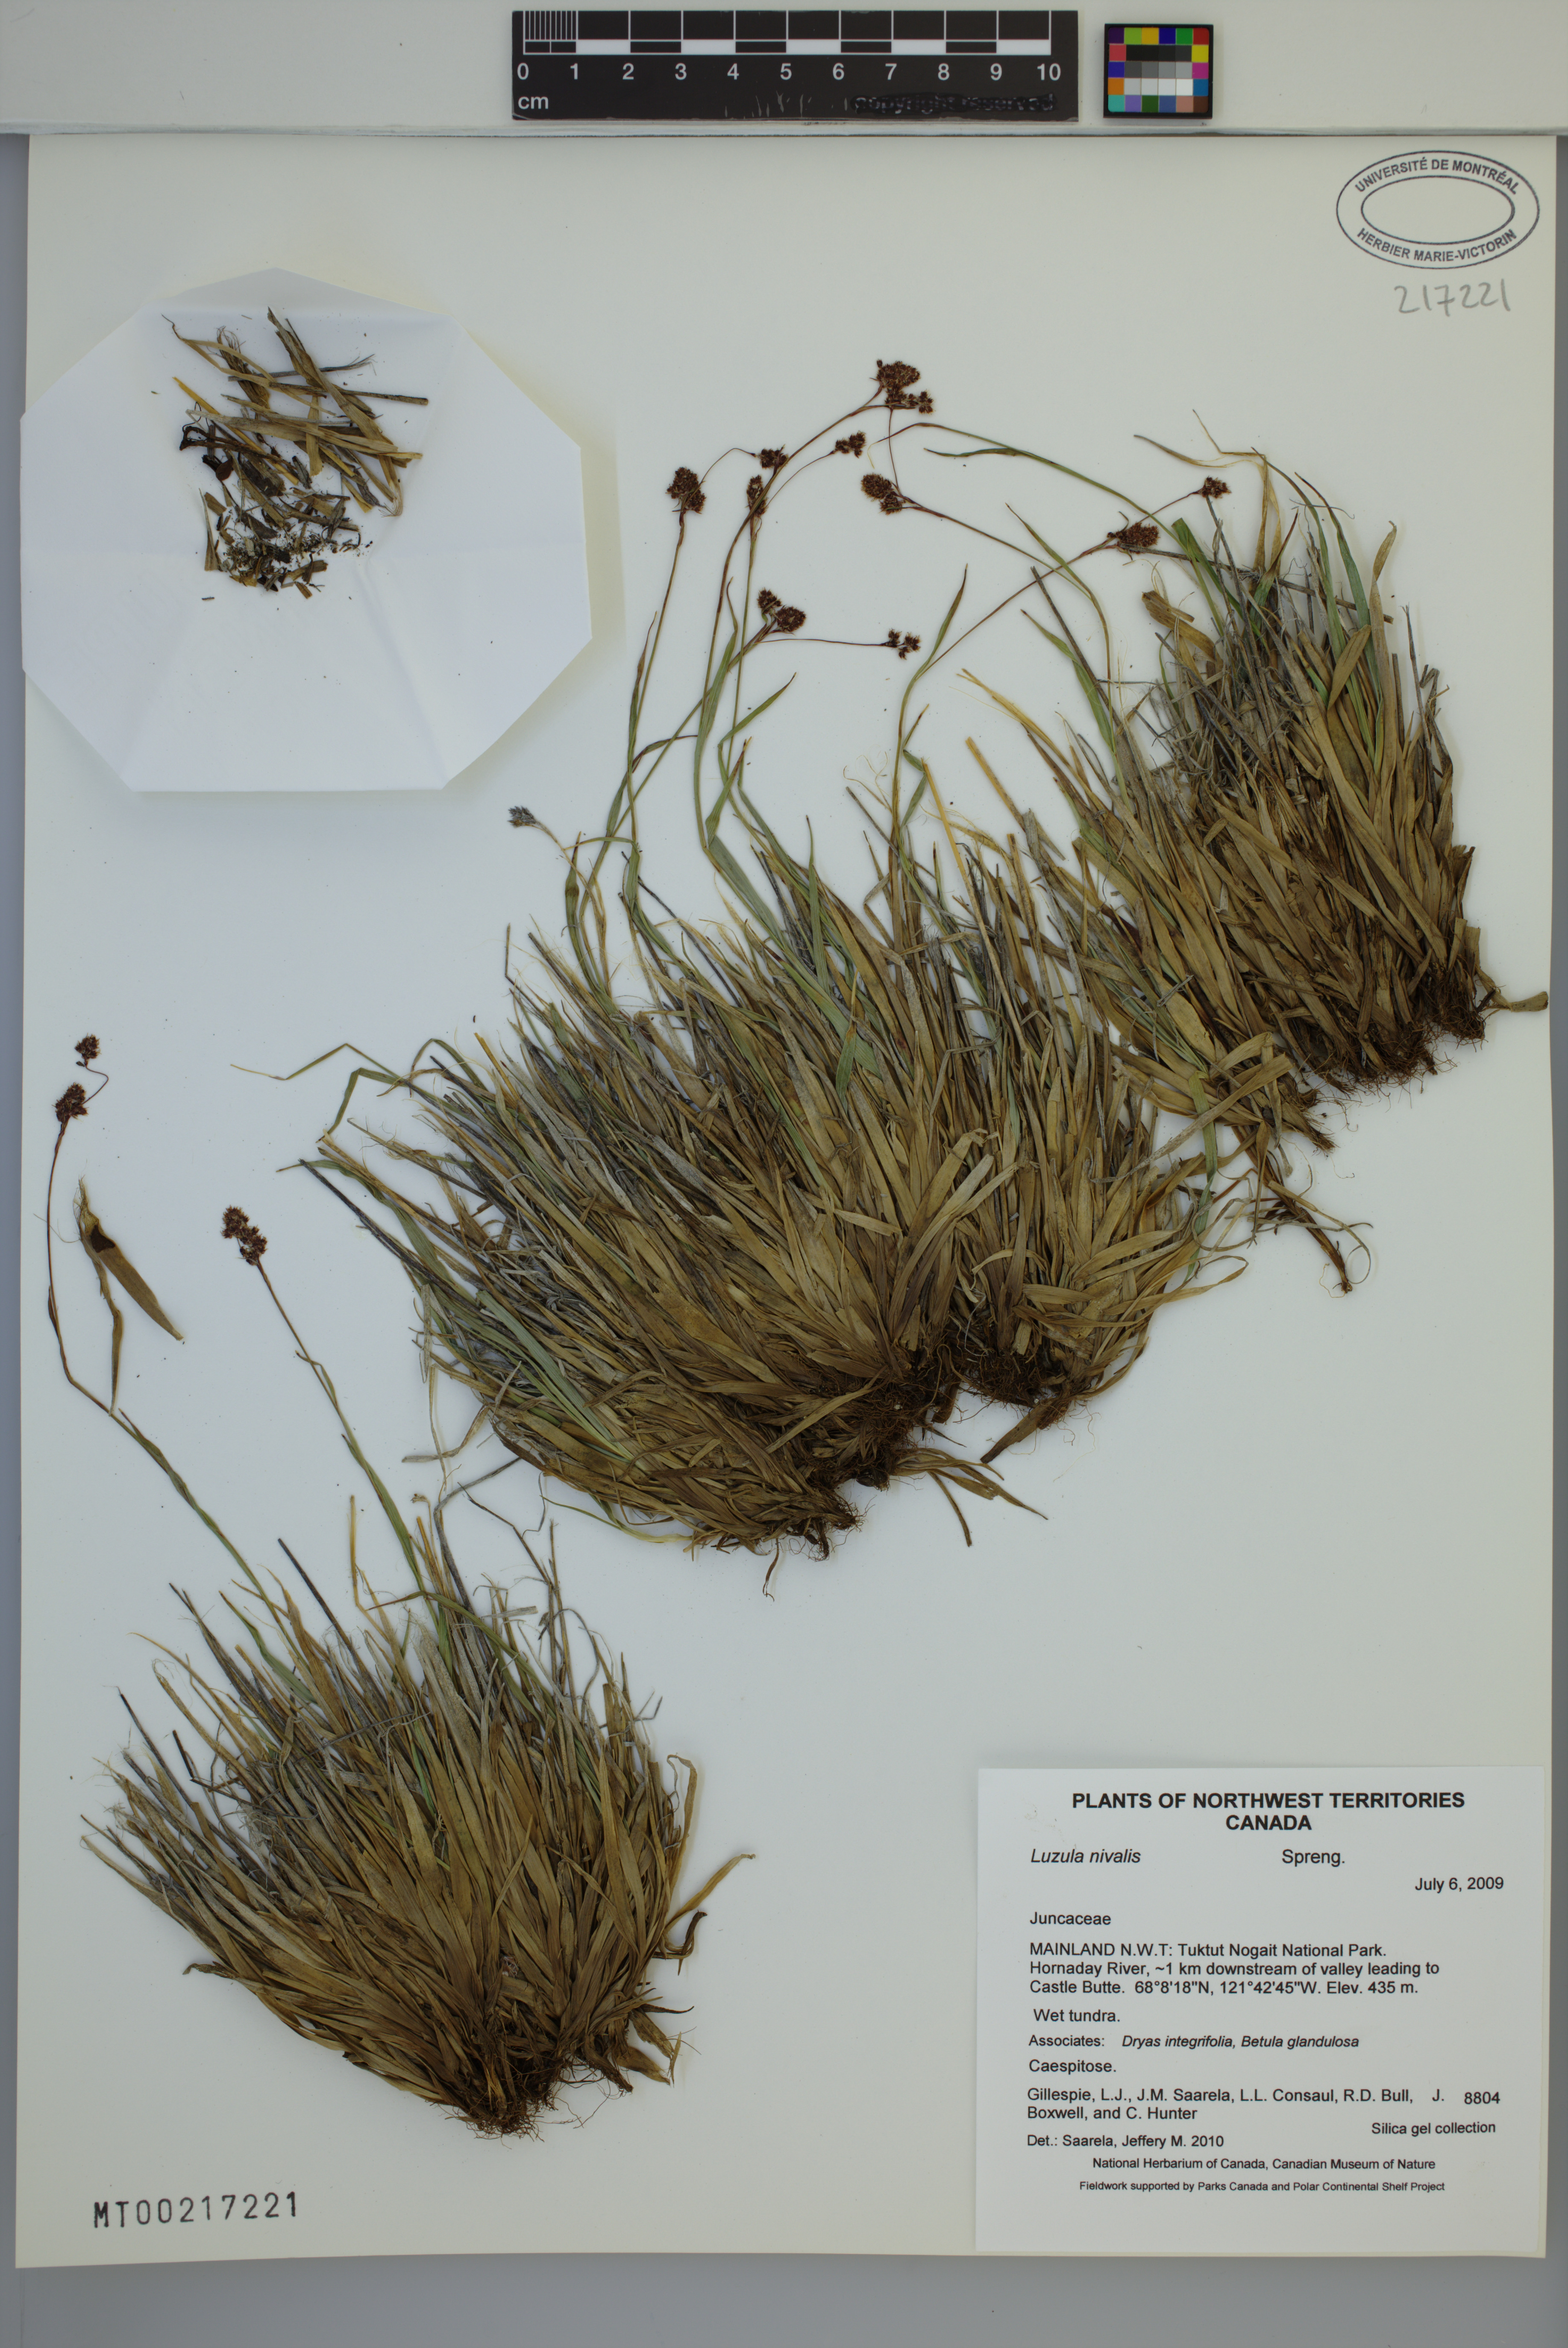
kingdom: Plantae
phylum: Tracheophyta
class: Liliopsida
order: Poales
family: Juncaceae
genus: Luzula
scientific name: Luzula nivalis
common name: Arctic woodrush
